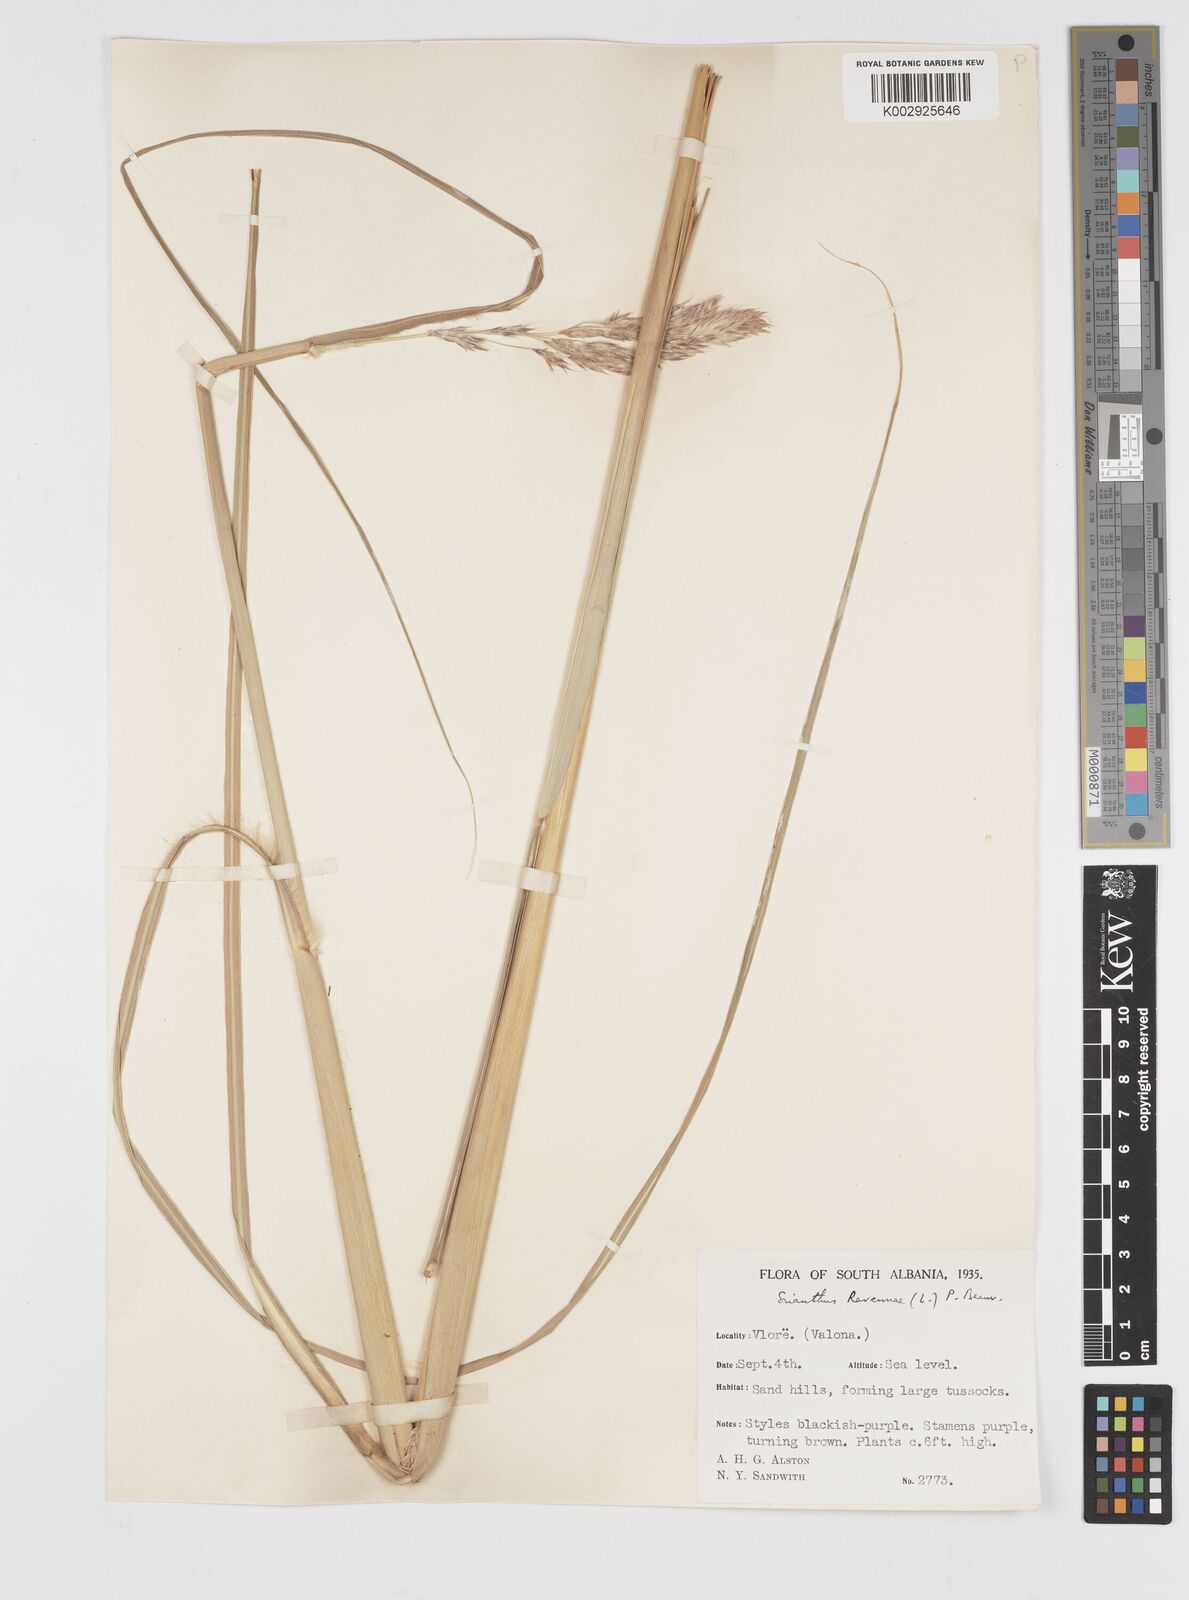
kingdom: Plantae
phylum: Tracheophyta
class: Liliopsida
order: Poales
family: Poaceae
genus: Tripidium
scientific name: Tripidium ravennae
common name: Ravenna grass
